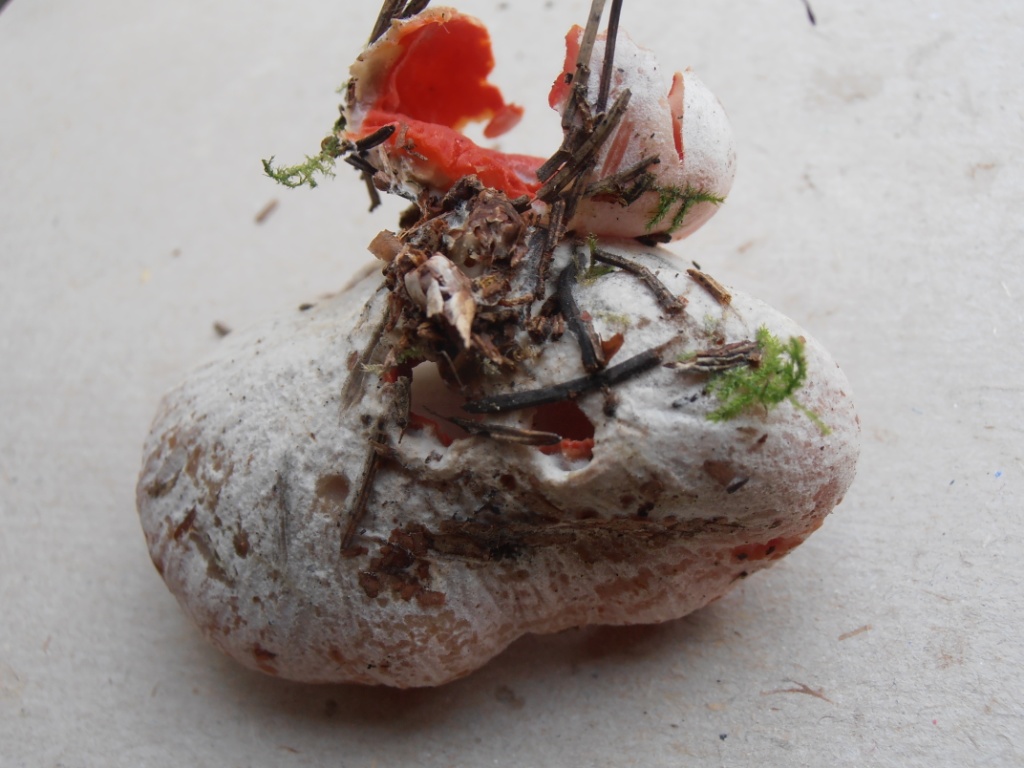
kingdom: Fungi
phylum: Ascomycota
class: Pezizomycetes
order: Pezizales
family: Sarcoscyphaceae
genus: Sarcoscypha
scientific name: Sarcoscypha austriaca
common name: krølhåret pragtbæger
